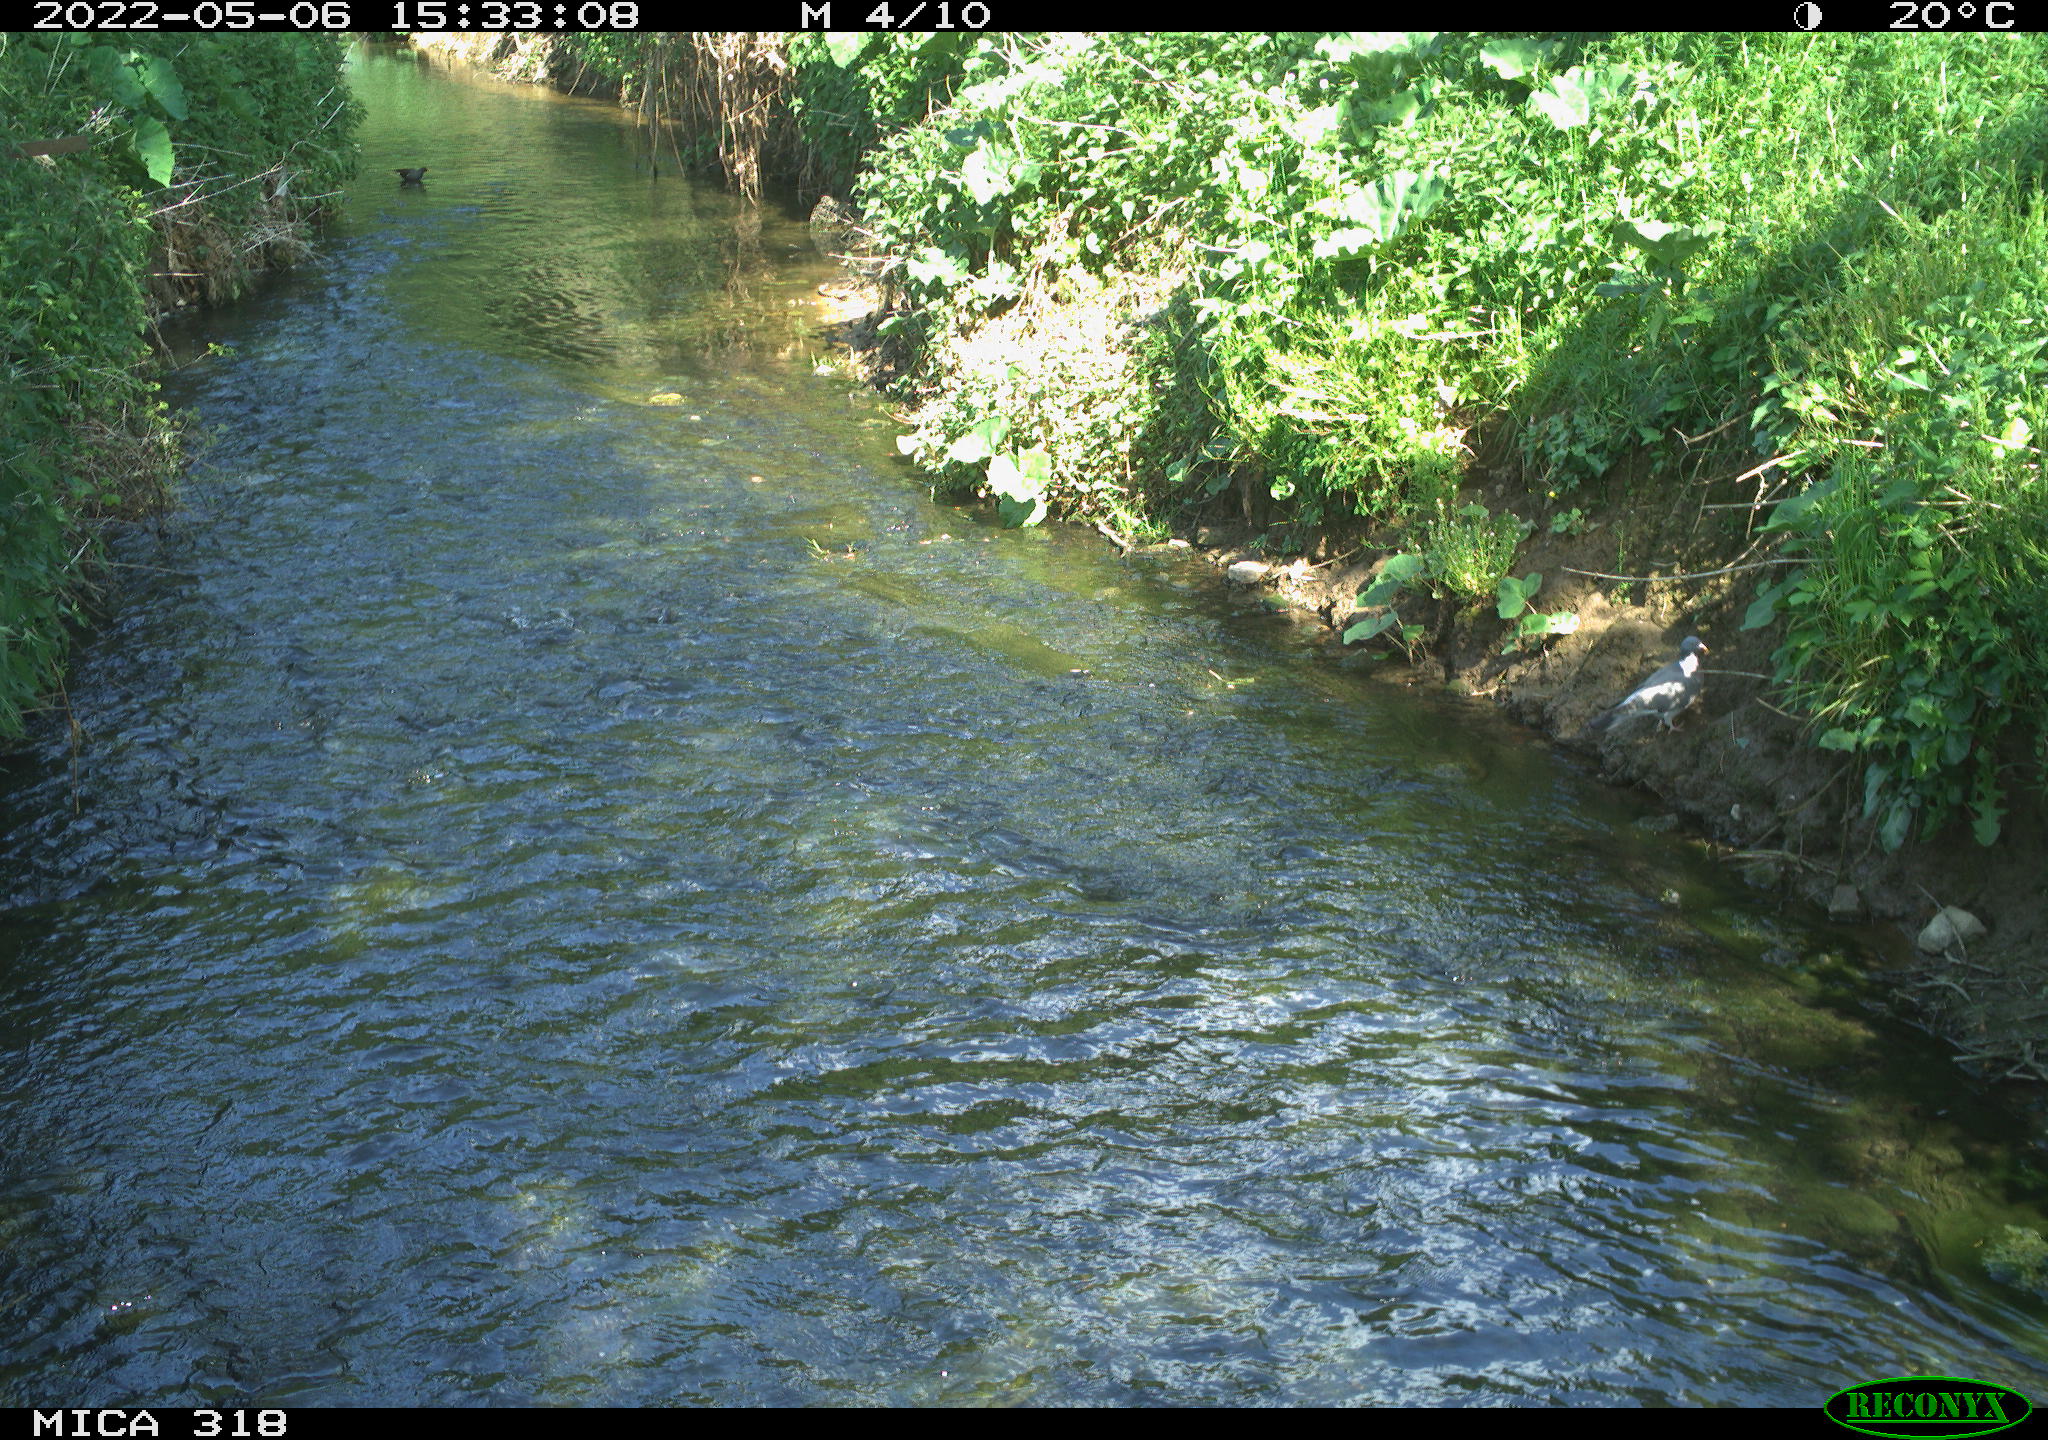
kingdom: Animalia
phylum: Chordata
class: Aves
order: Gruiformes
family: Rallidae
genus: Gallinula
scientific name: Gallinula chloropus
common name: Common moorhen
